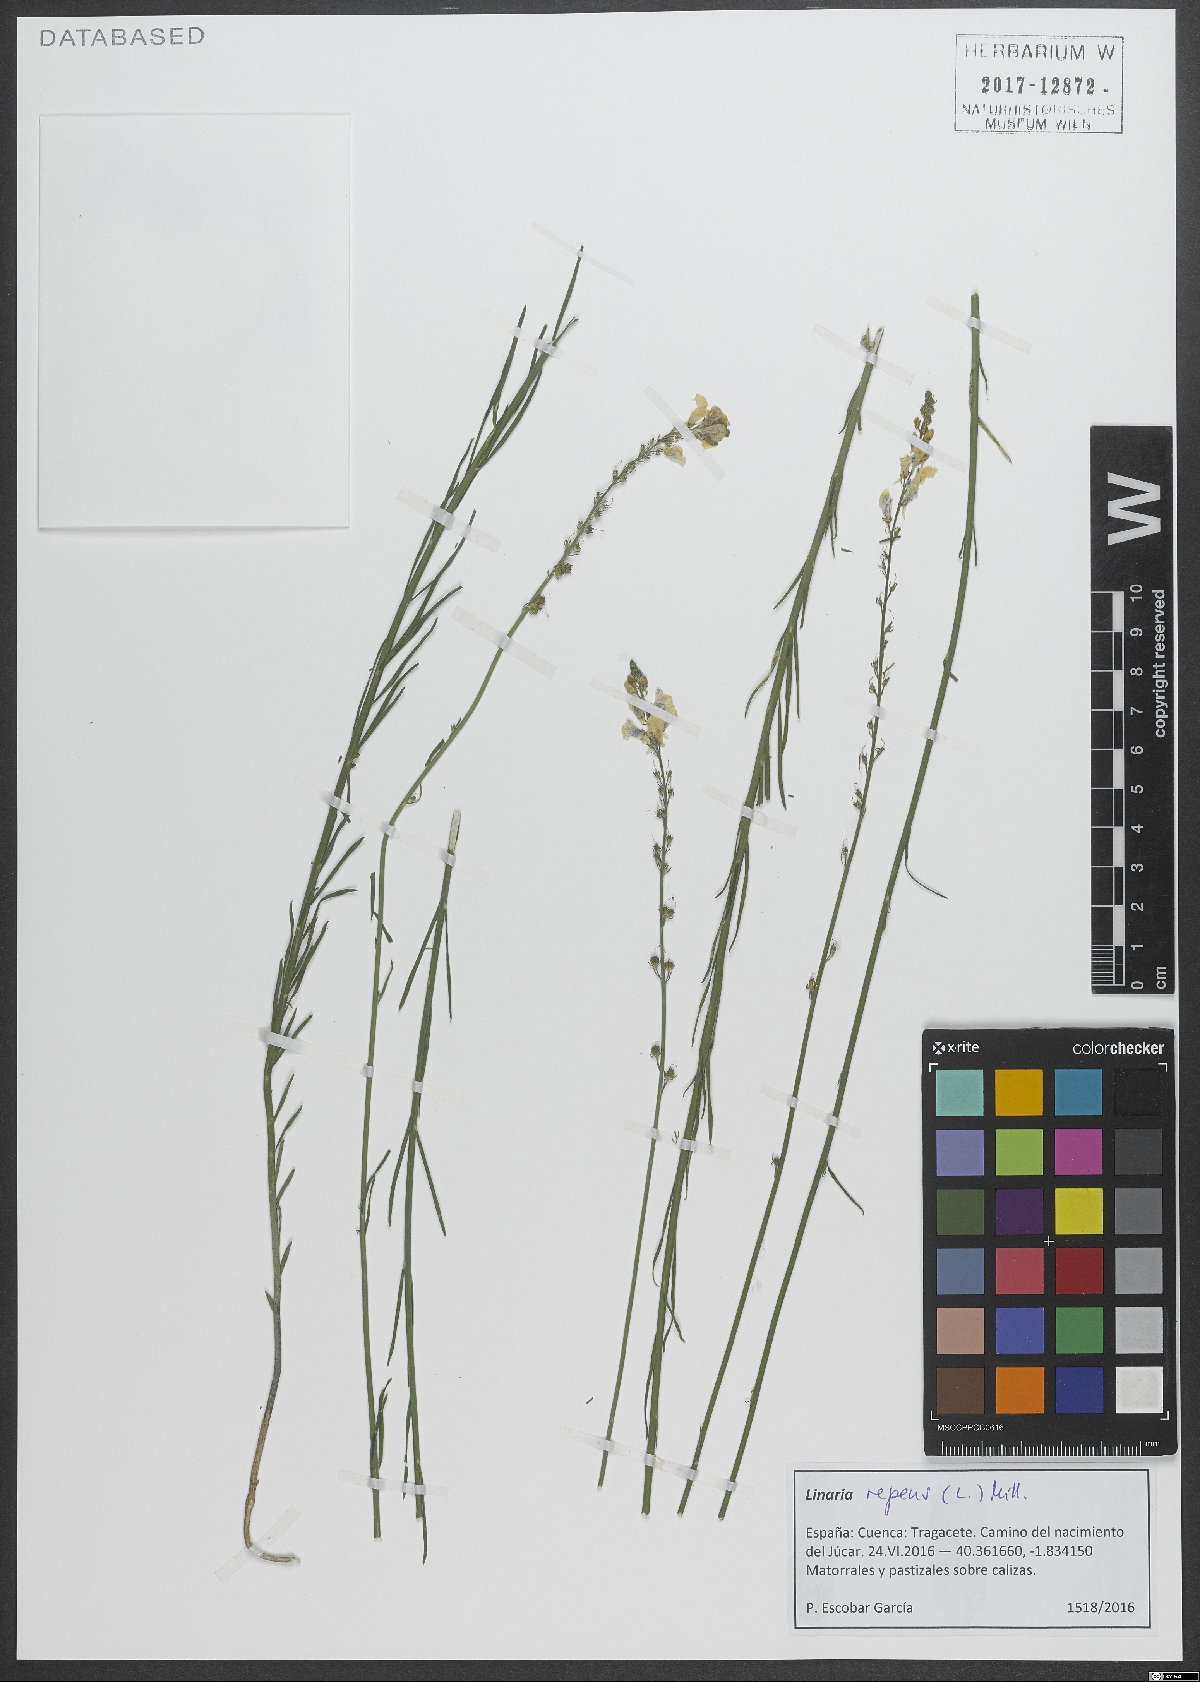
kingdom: Plantae
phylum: Tracheophyta
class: Magnoliopsida
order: Lamiales
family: Plantaginaceae
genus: Linaria
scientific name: Linaria repens
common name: Pale toadflax
